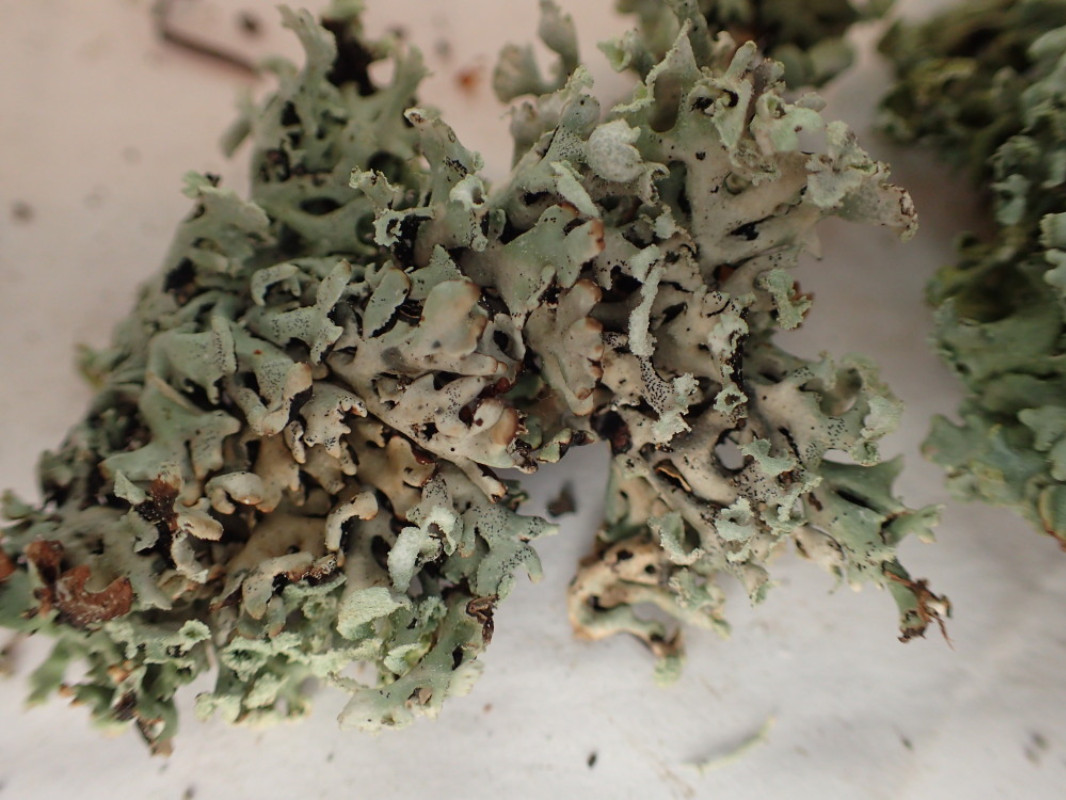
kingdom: Fungi
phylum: Ascomycota
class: Lecanoromycetes
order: Lecanorales
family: Parmeliaceae
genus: Hypogymnia
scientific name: Hypogymnia physodes
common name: almindelig kvistlav
